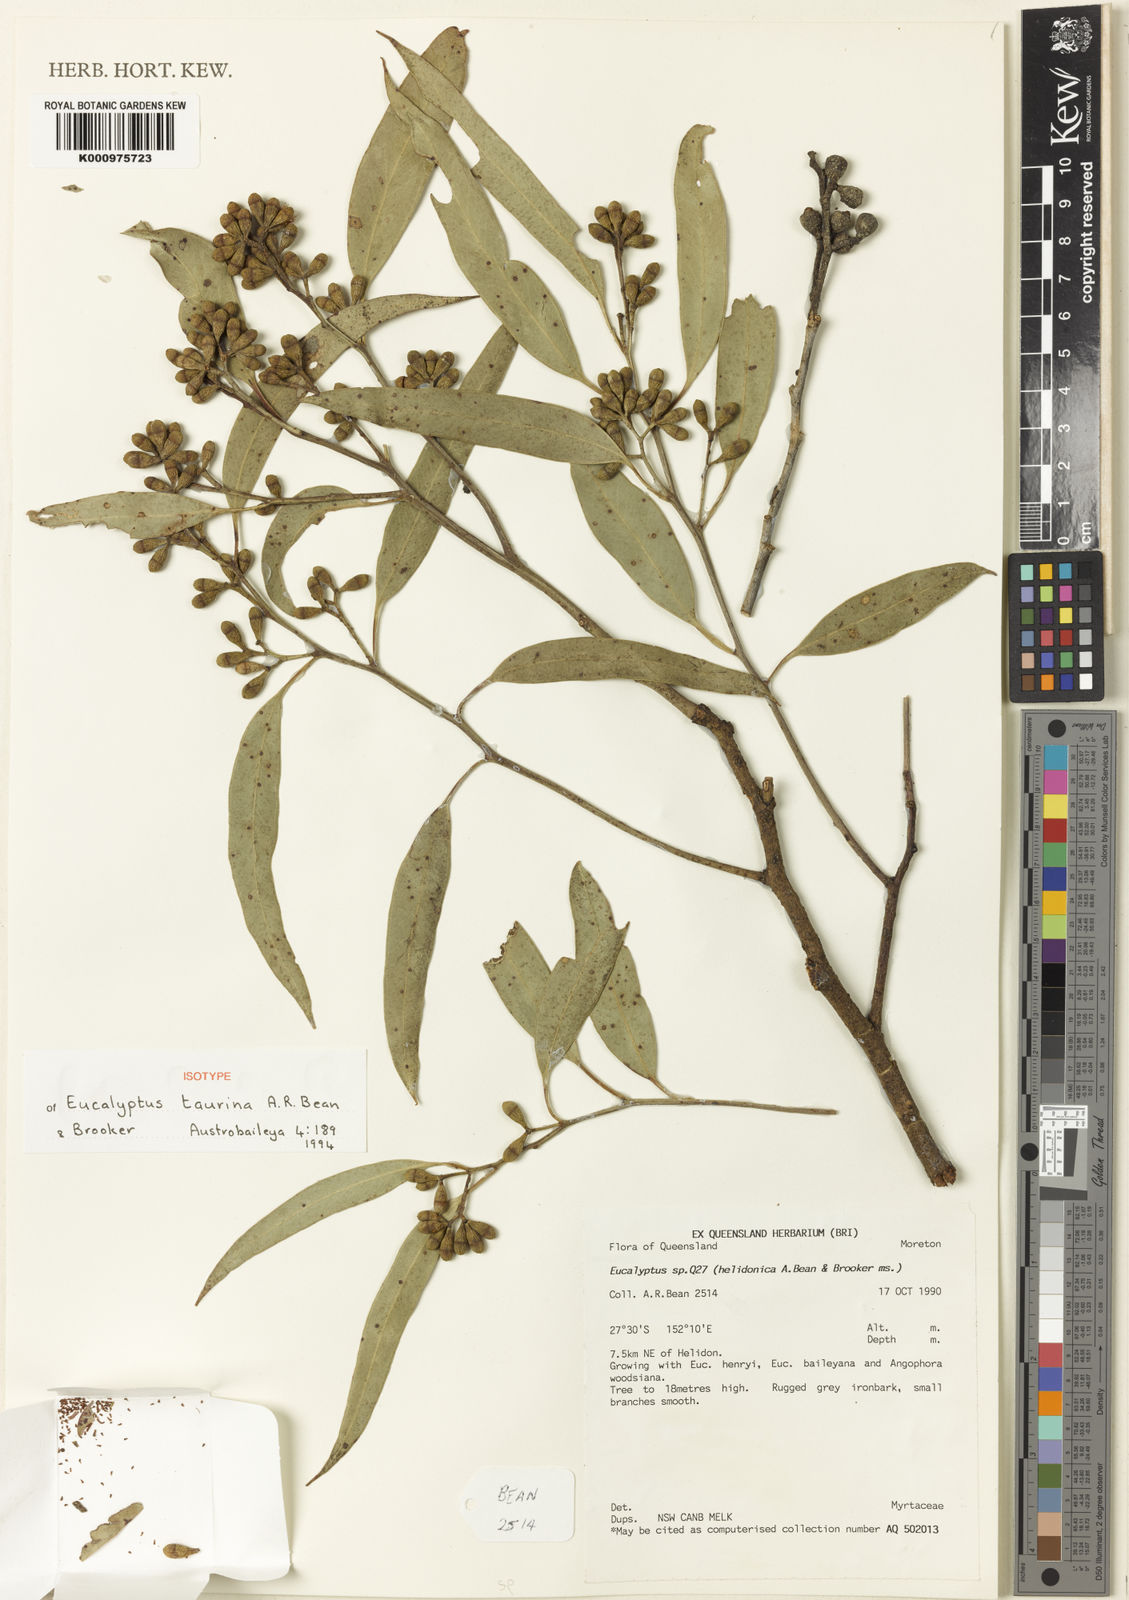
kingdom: Plantae
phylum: Tracheophyta
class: Magnoliopsida
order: Myrtales
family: Myrtaceae
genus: Eucalyptus
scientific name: Eucalyptus taurina
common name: Helidon ironbark
